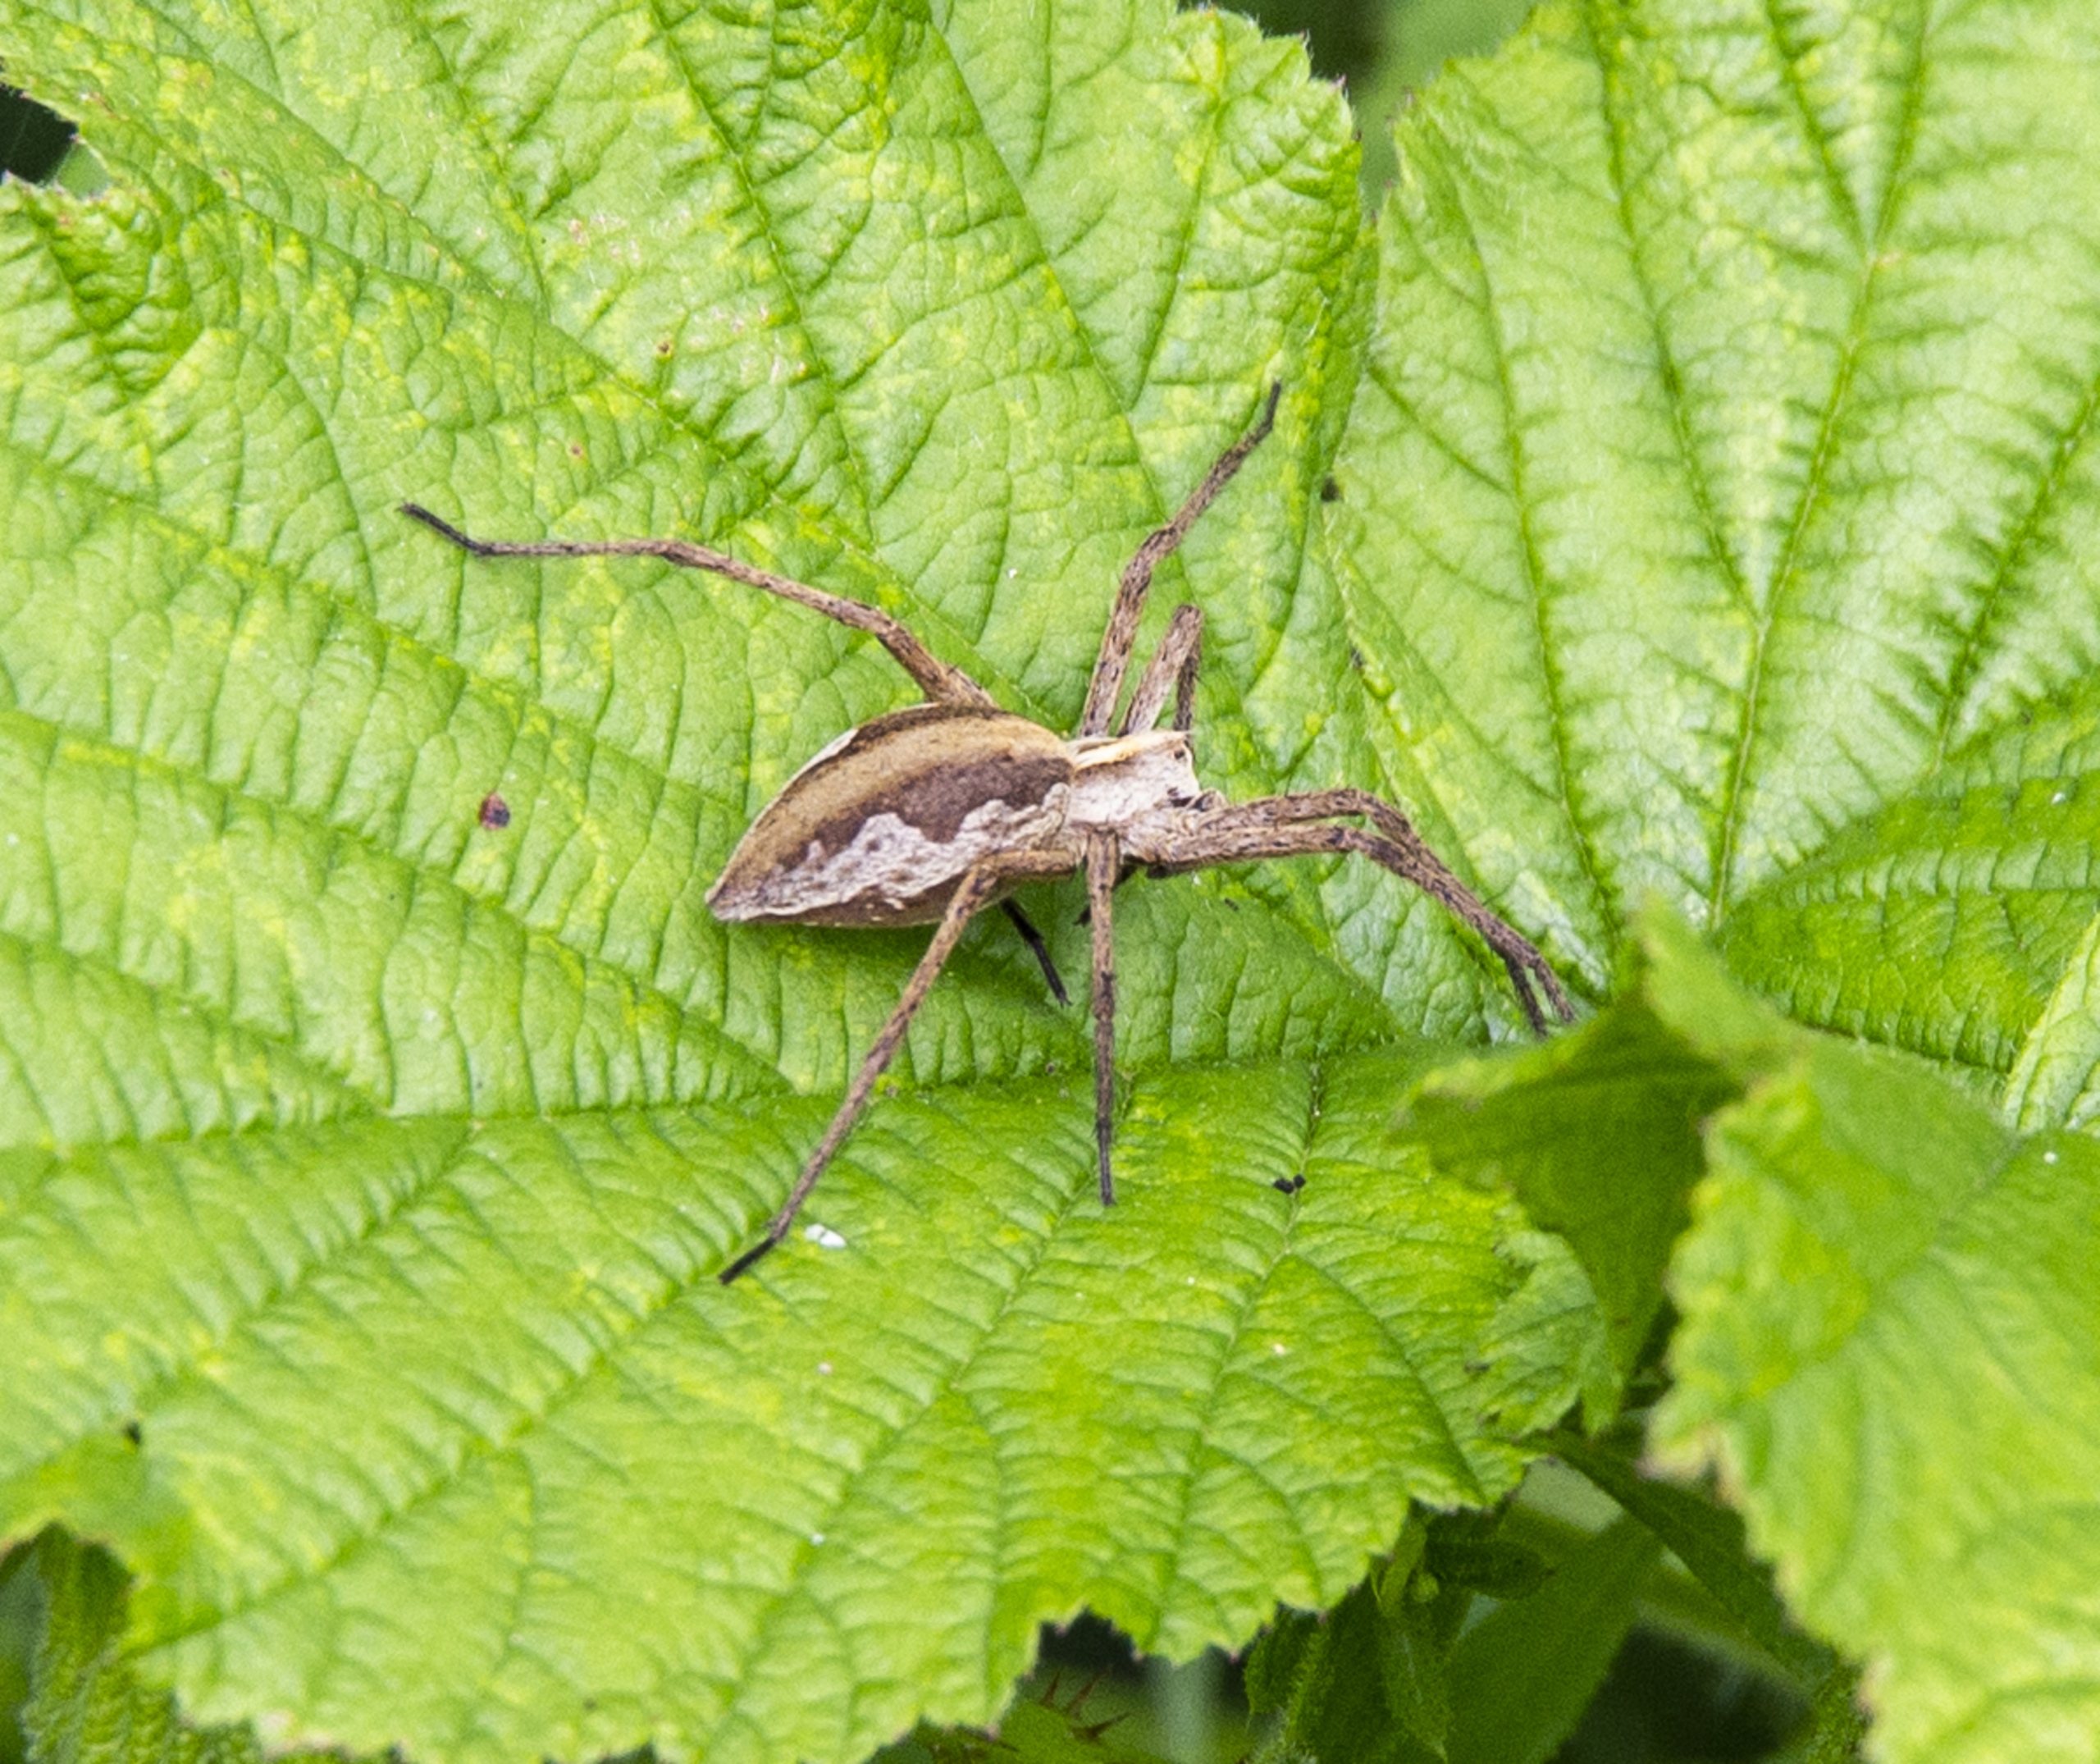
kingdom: Animalia
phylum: Arthropoda
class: Arachnida
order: Araneae
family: Pisauridae
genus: Pisaura
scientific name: Pisaura mirabilis
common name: Almindelig rovedderkop
